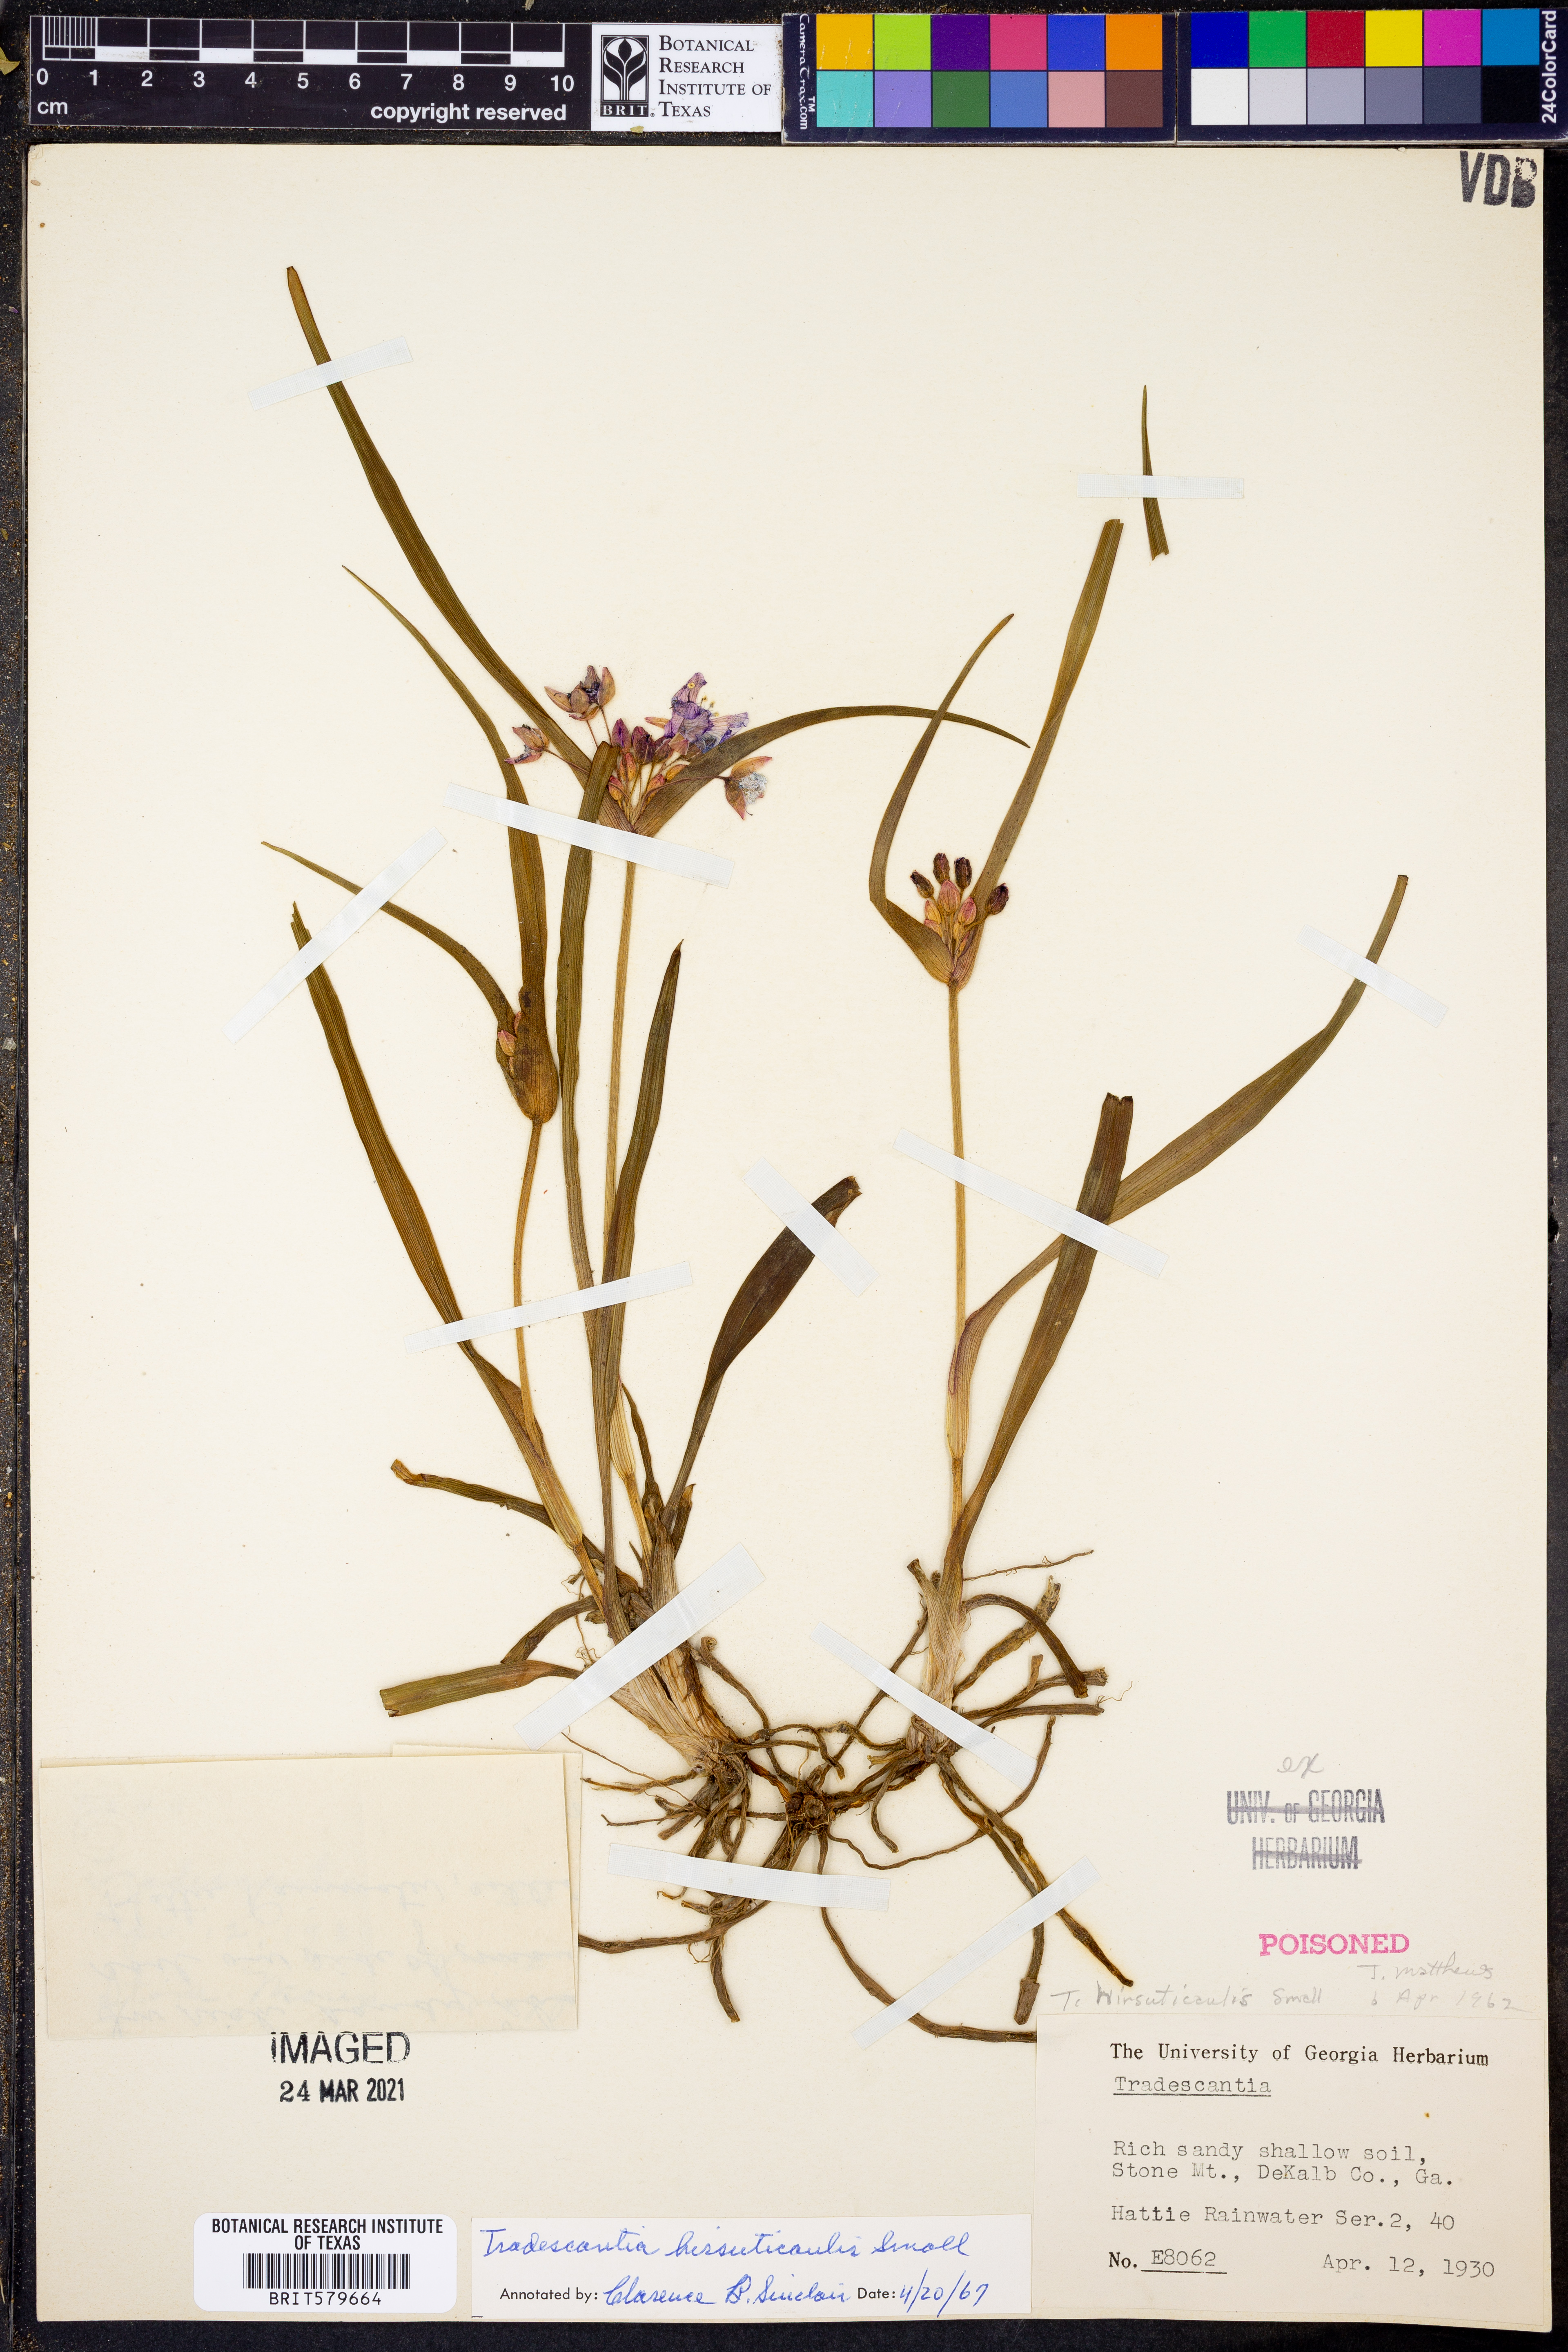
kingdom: Plantae
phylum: Tracheophyta
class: Liliopsida
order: Commelinales
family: Commelinaceae
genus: Tradescantia
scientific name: Tradescantia hirsuticaulis
